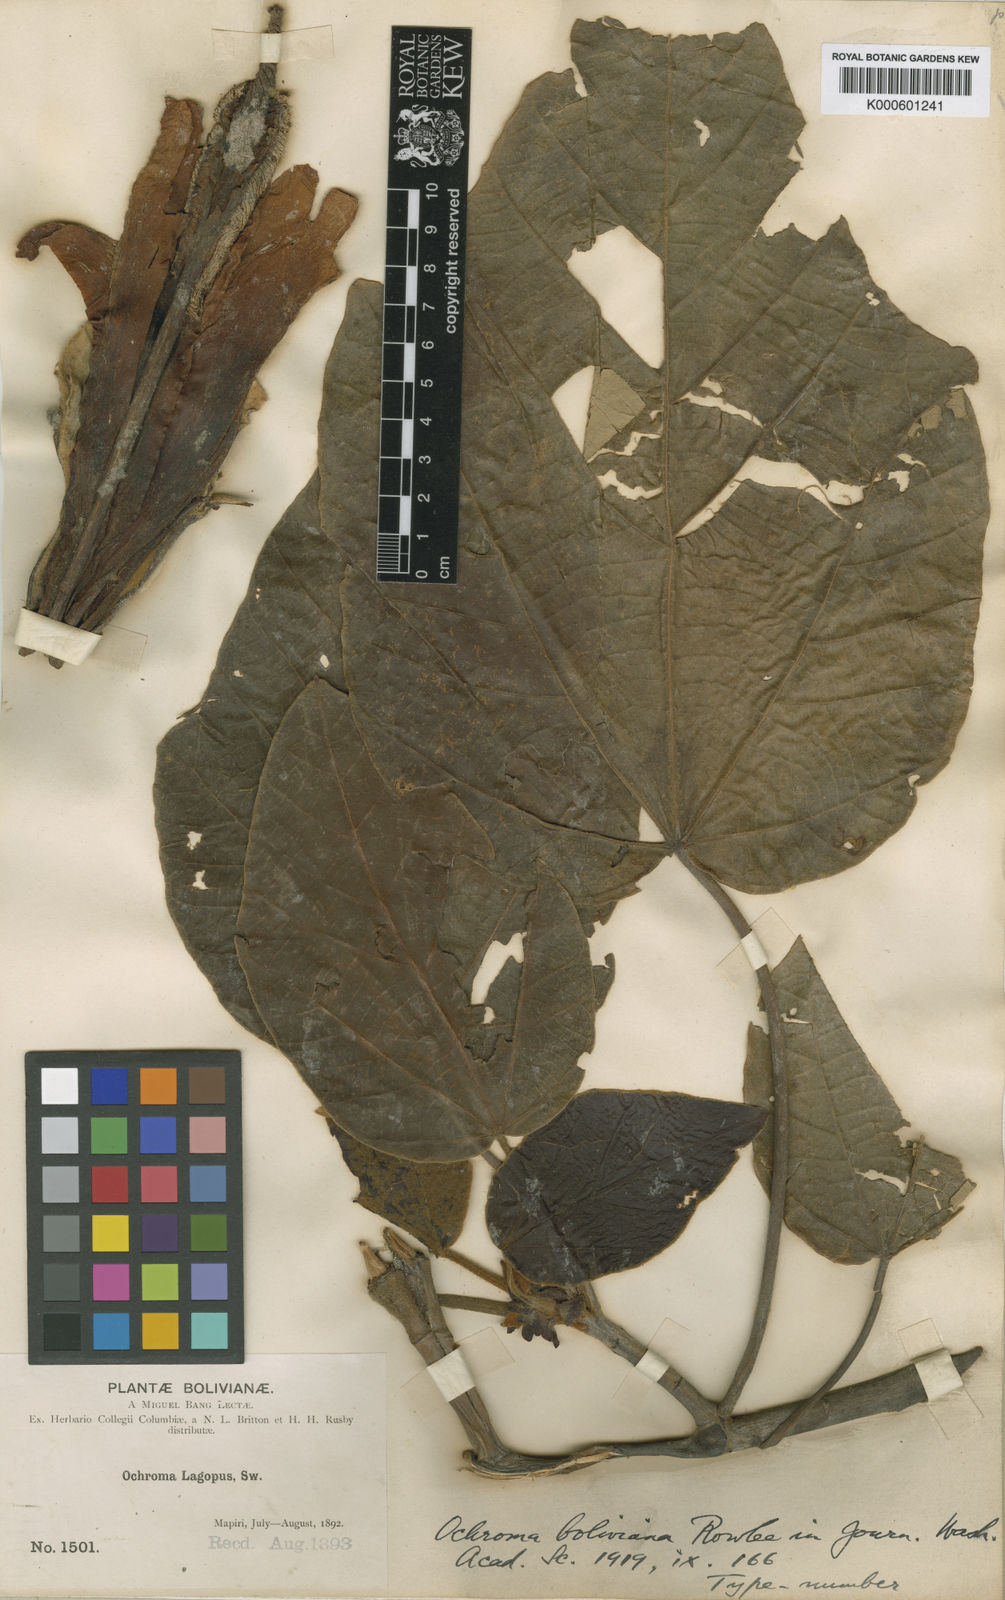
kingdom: Plantae
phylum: Tracheophyta
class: Magnoliopsida
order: Malvales
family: Malvaceae
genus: Ochroma
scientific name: Ochroma pyramidale
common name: Balsa
